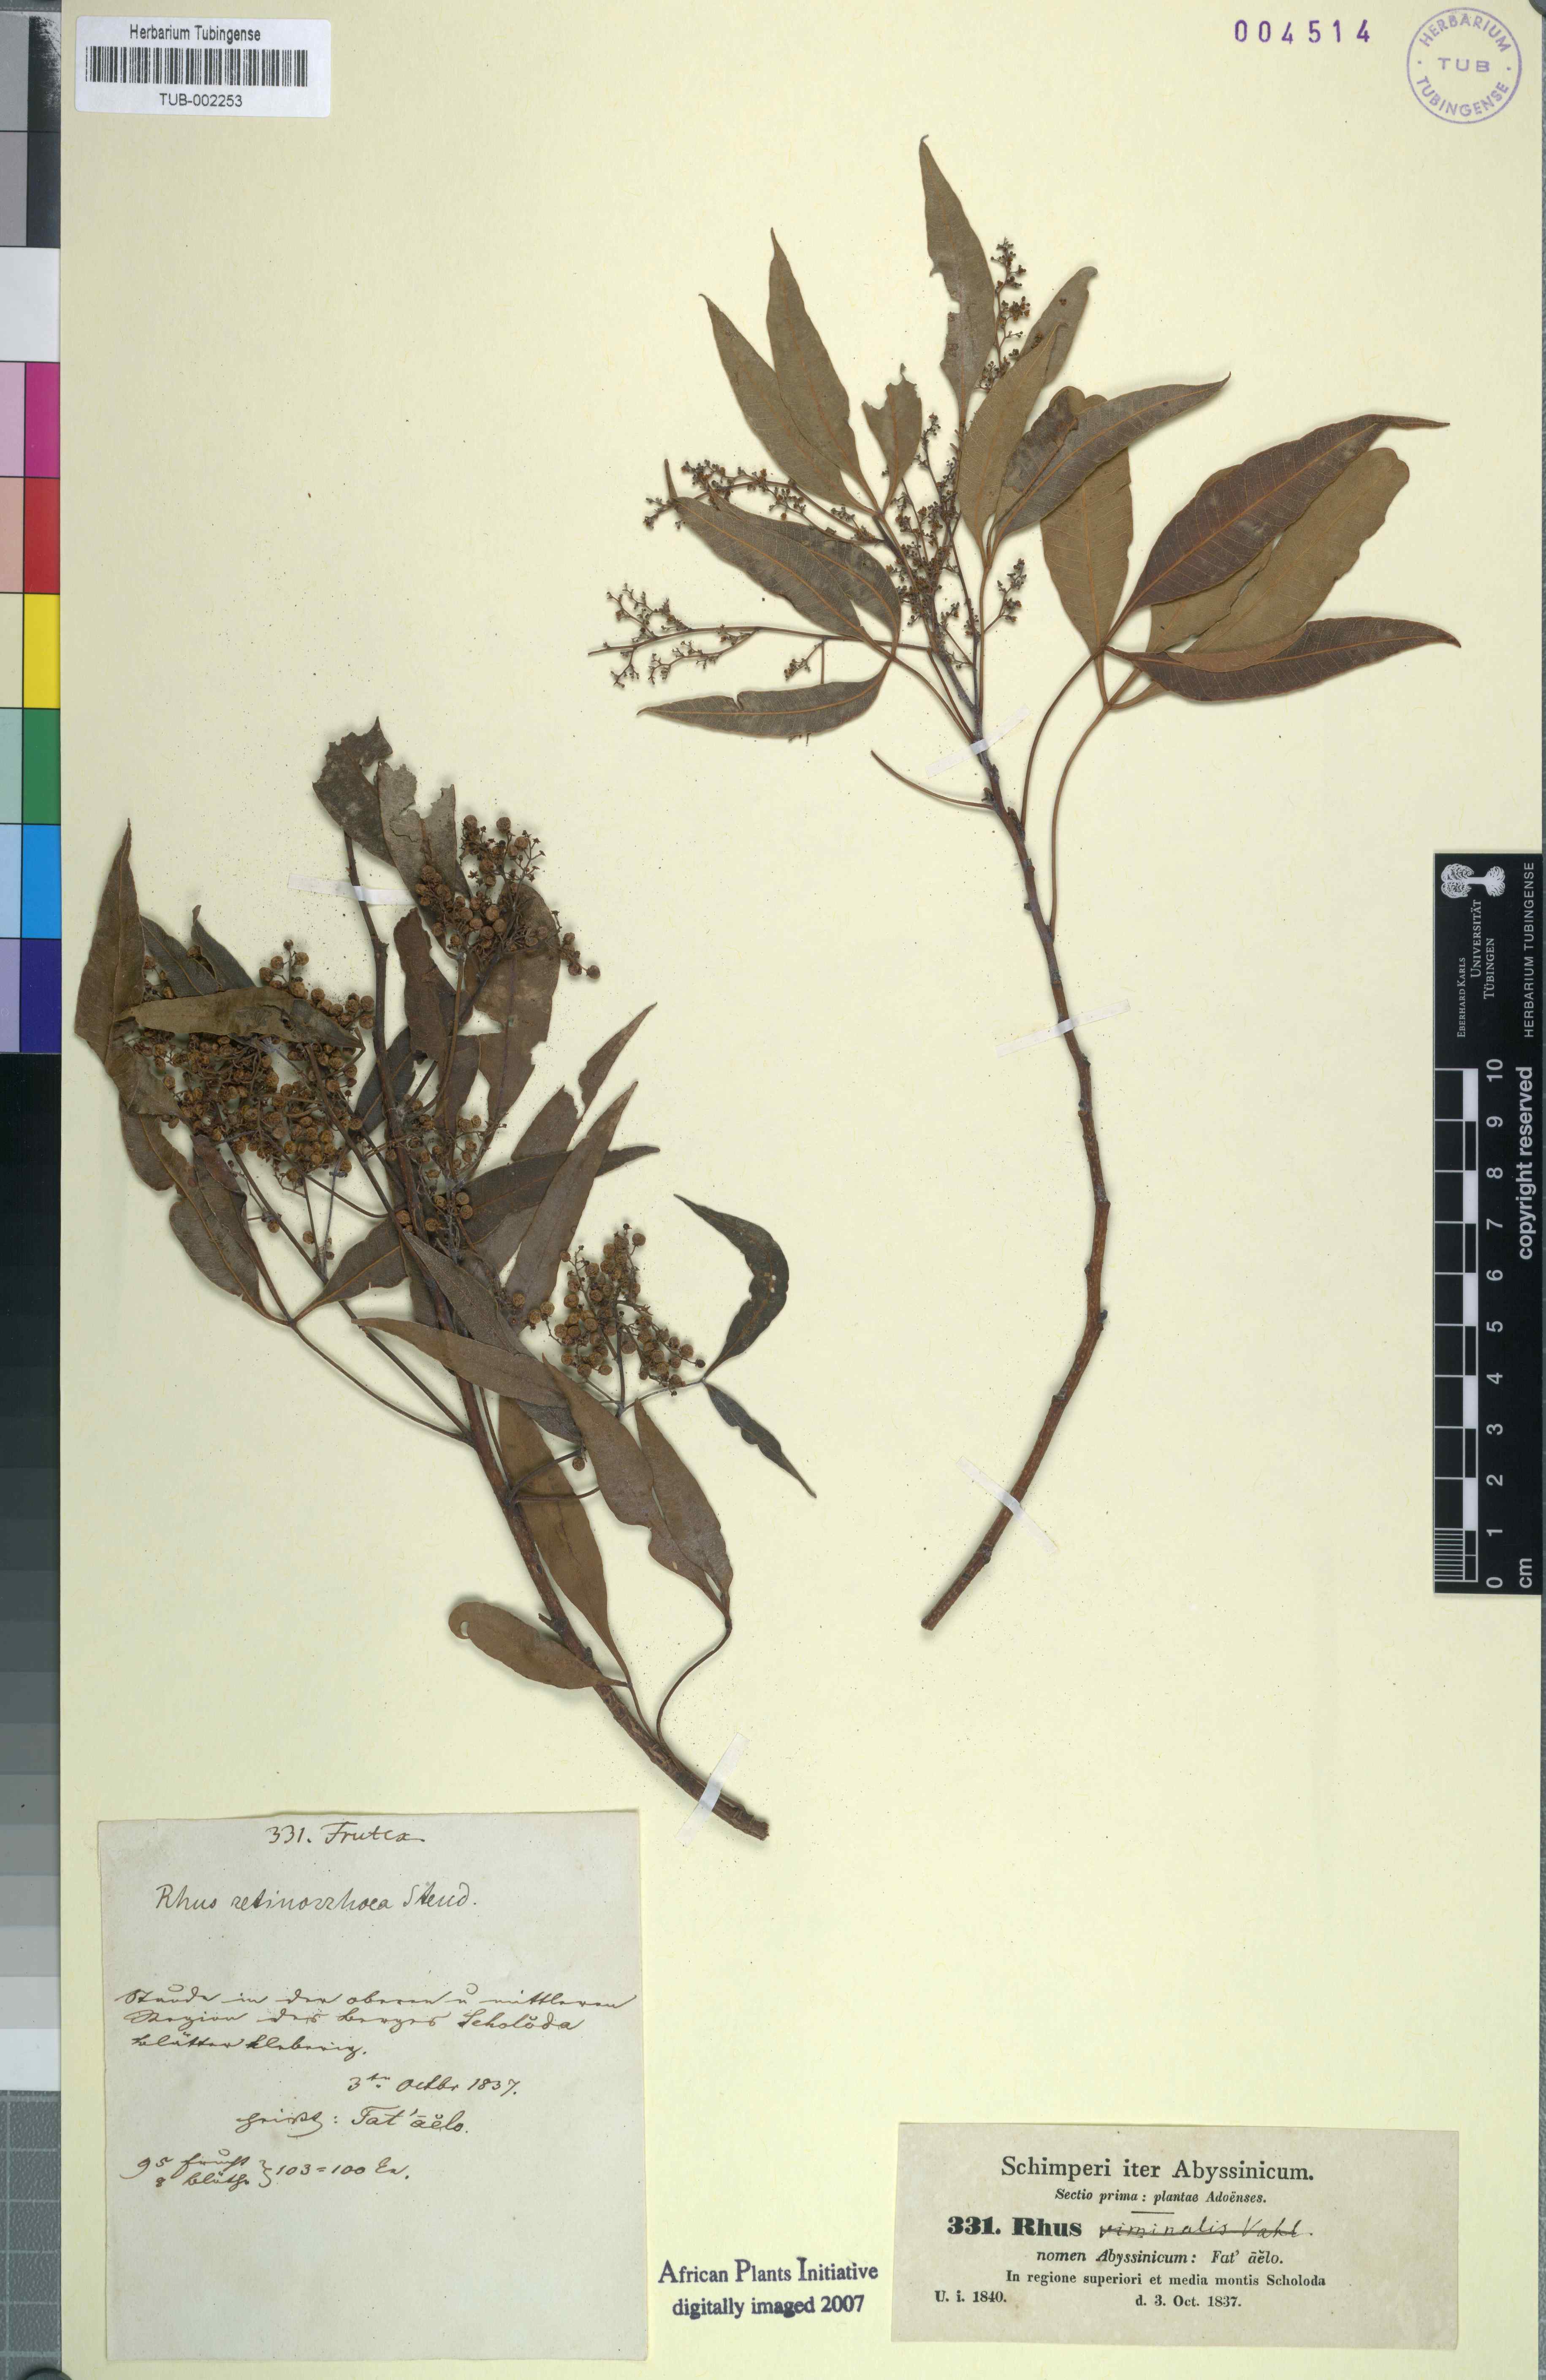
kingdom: Plantae
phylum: Tracheophyta
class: Magnoliopsida
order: Sapindales
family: Anacardiaceae
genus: Rhus
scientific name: Rhus retinorrhaea
